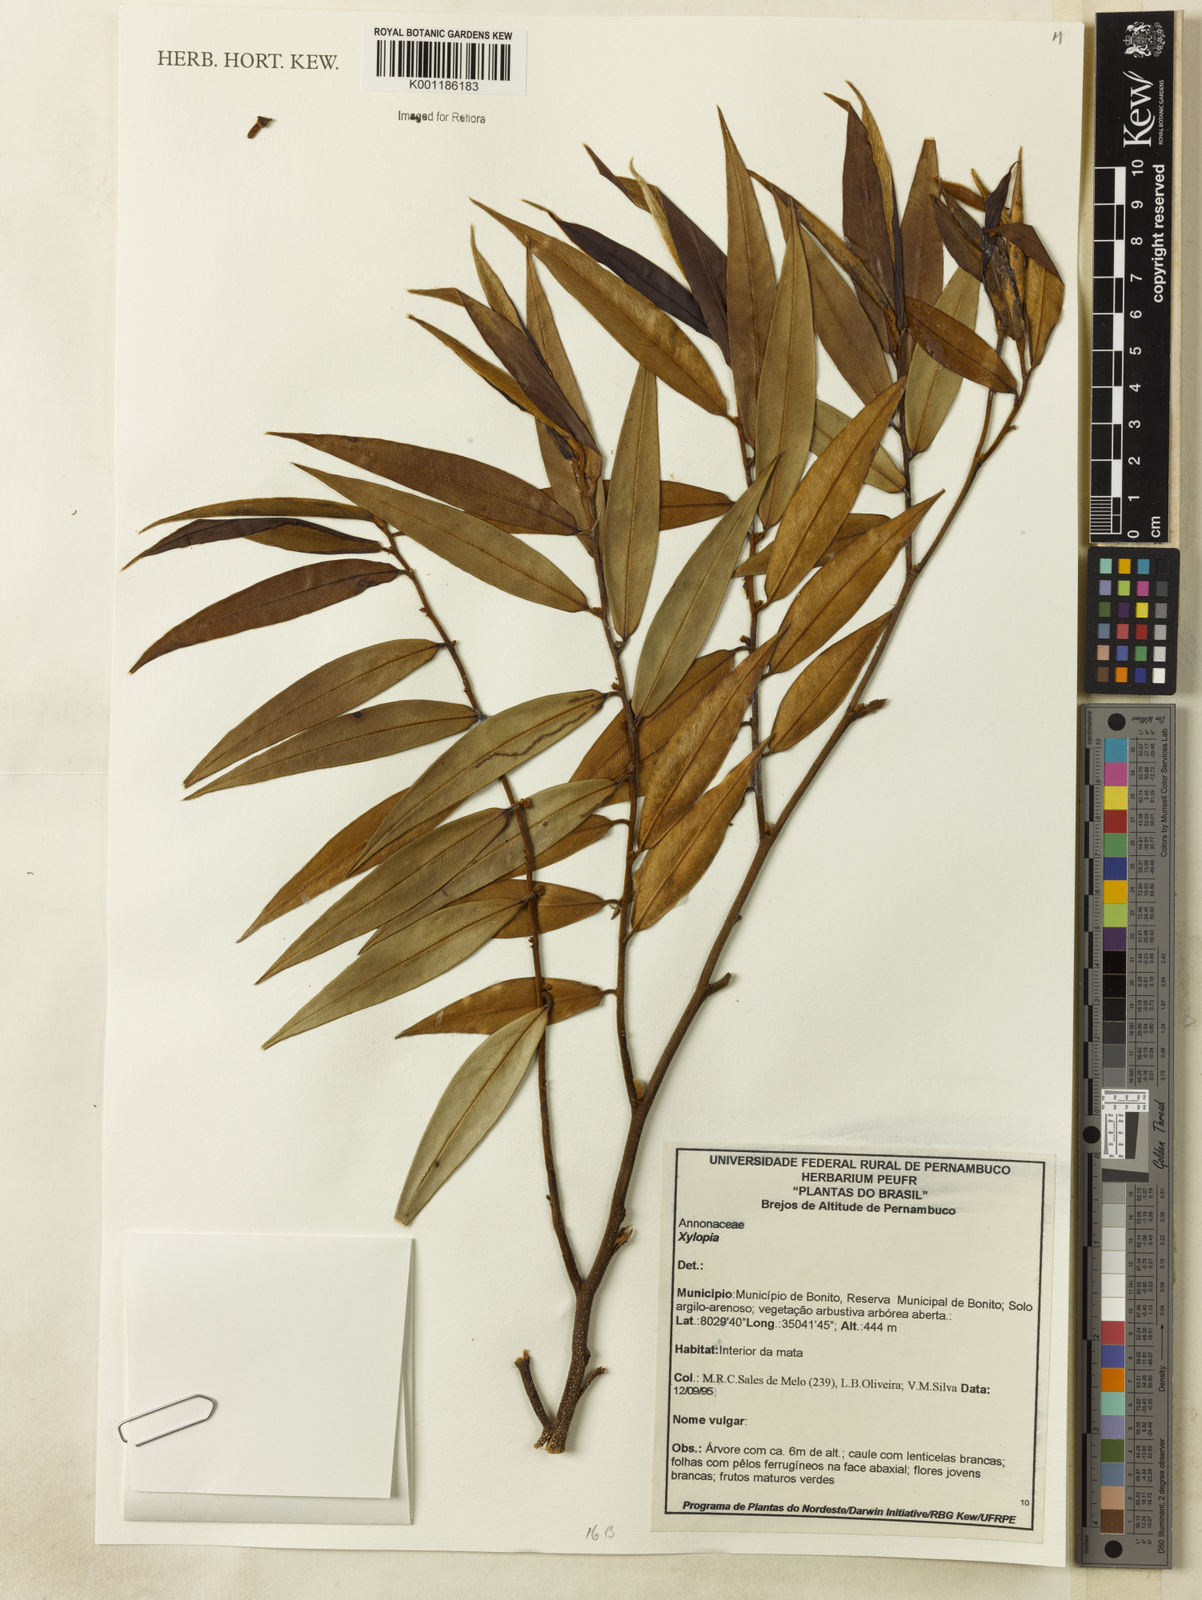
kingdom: Plantae
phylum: Tracheophyta
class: Magnoliopsida
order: Magnoliales
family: Annonaceae
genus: Xylopia
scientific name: Xylopia
